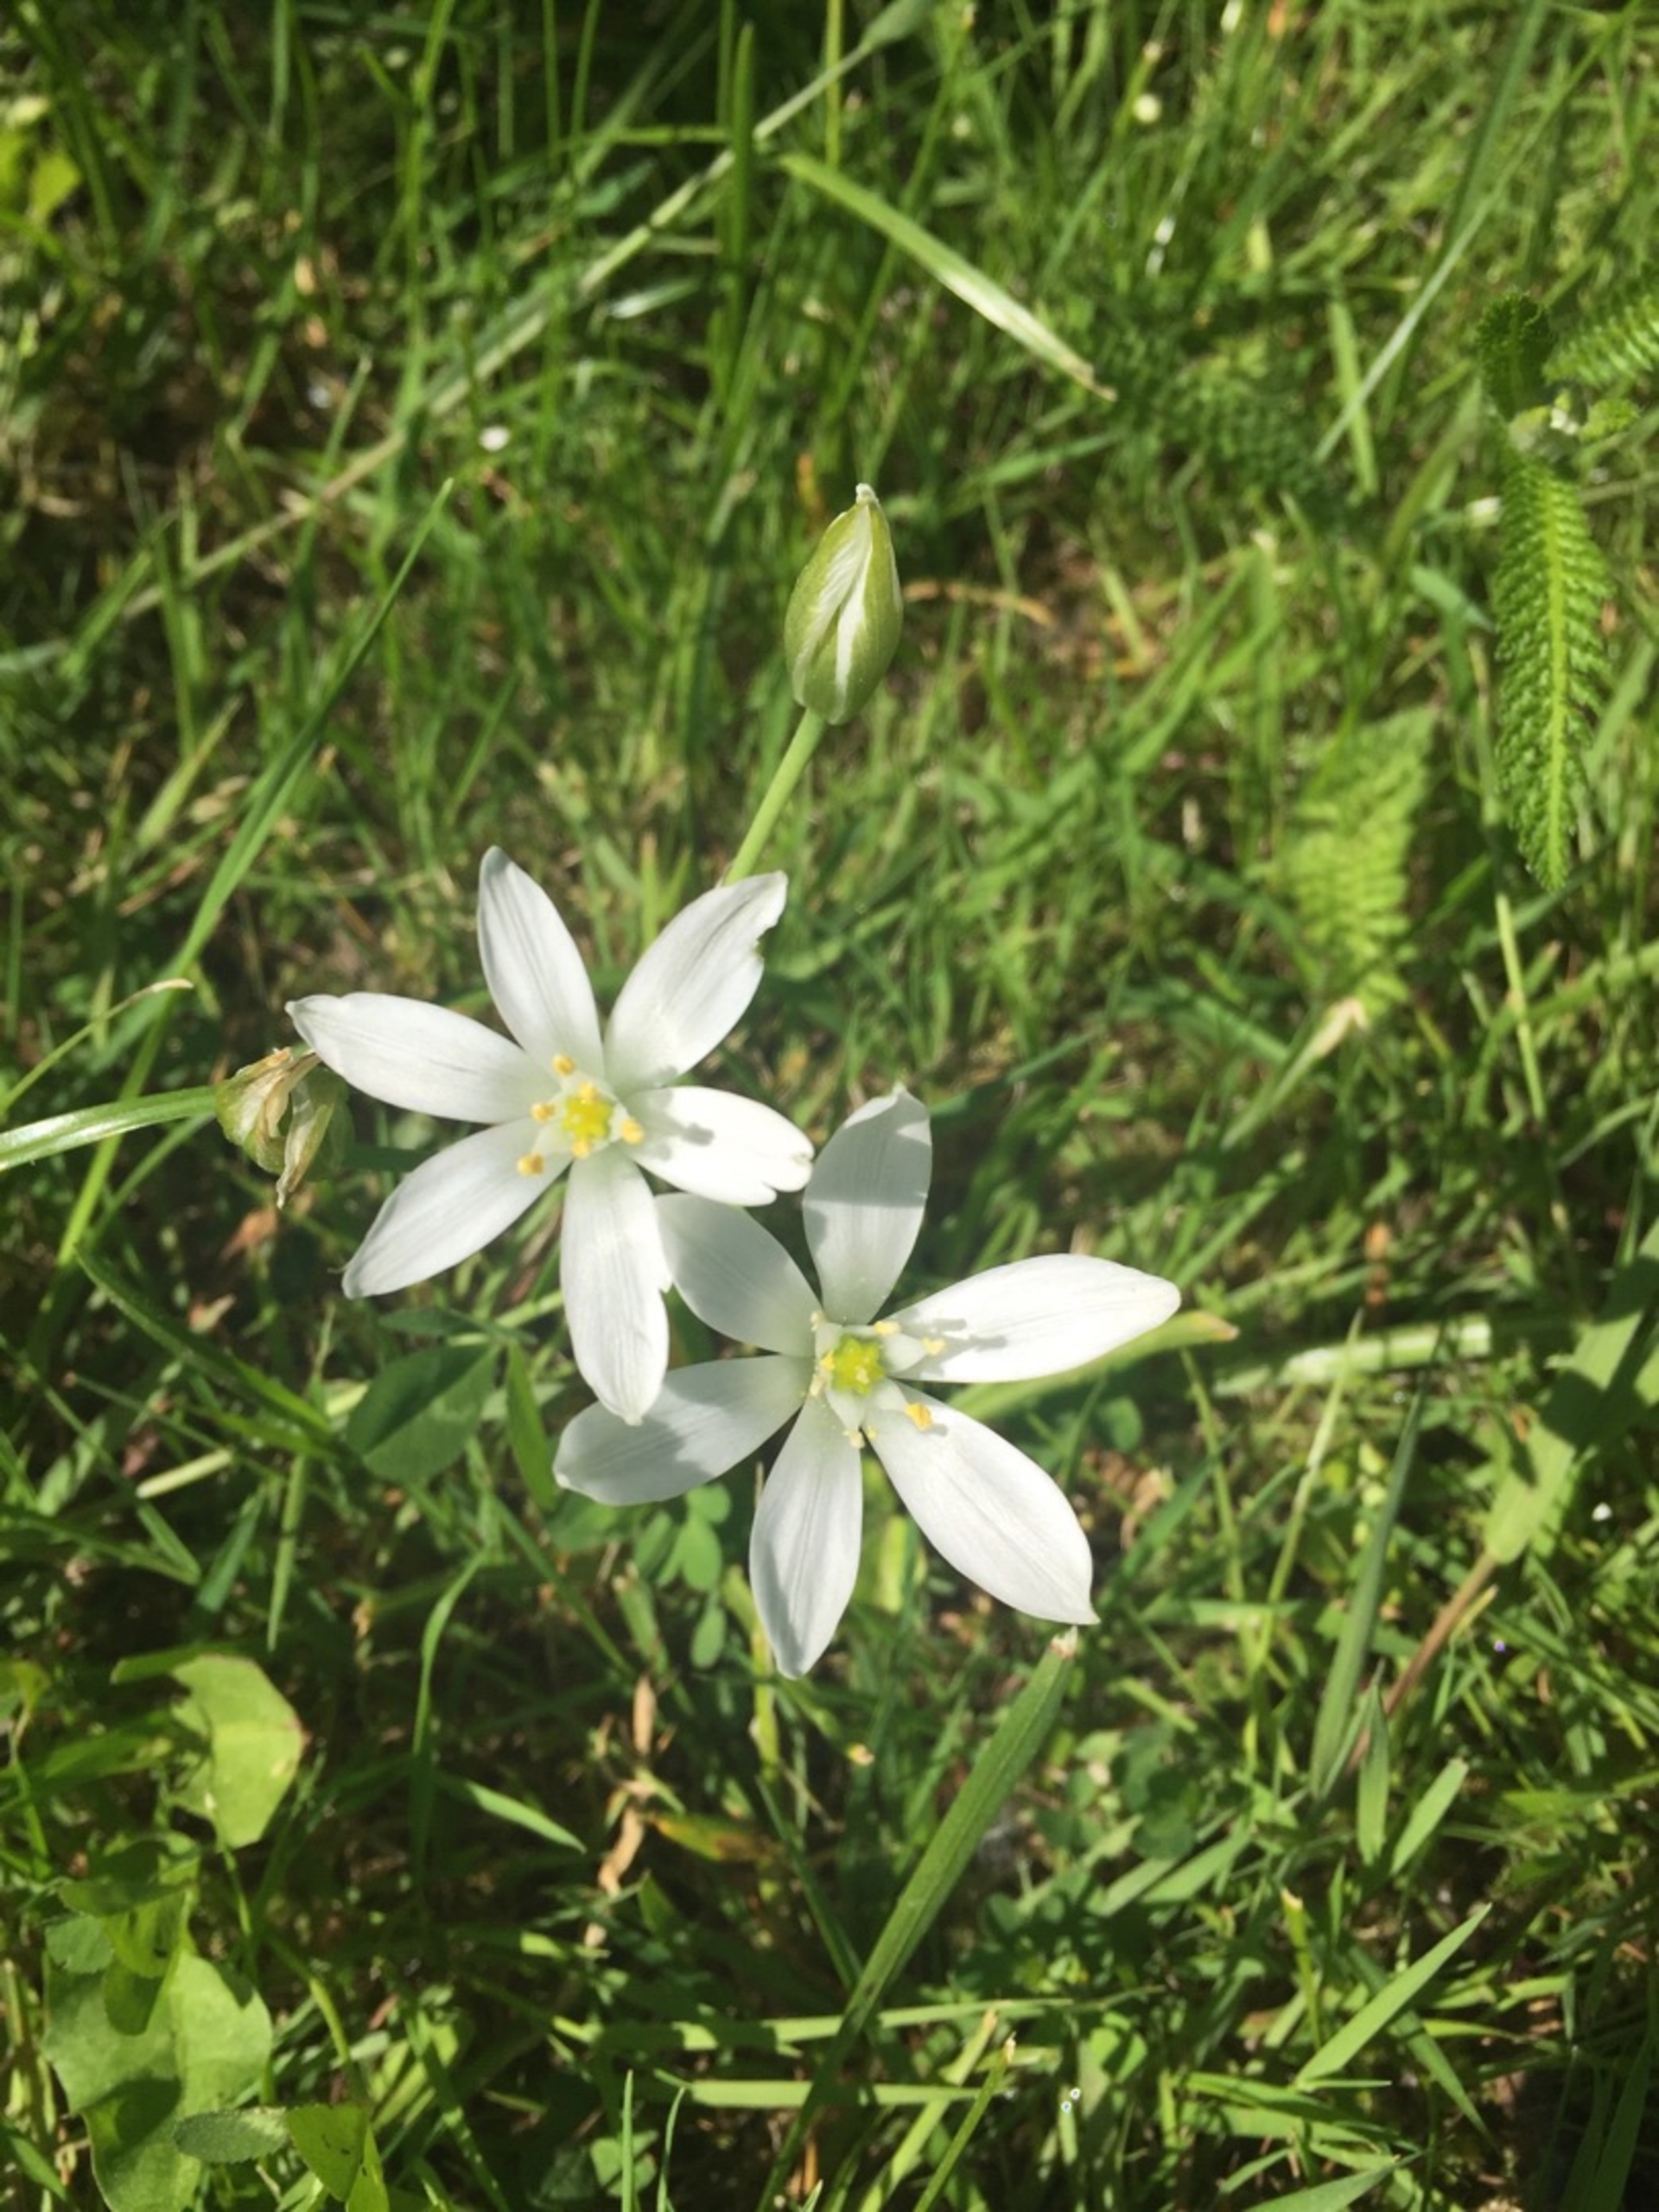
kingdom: Plantae
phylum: Tracheophyta
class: Liliopsida
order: Asparagales
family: Asparagaceae
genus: Ornithogalum
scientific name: Ornithogalum umbellatum
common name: Kost-fuglemælk
